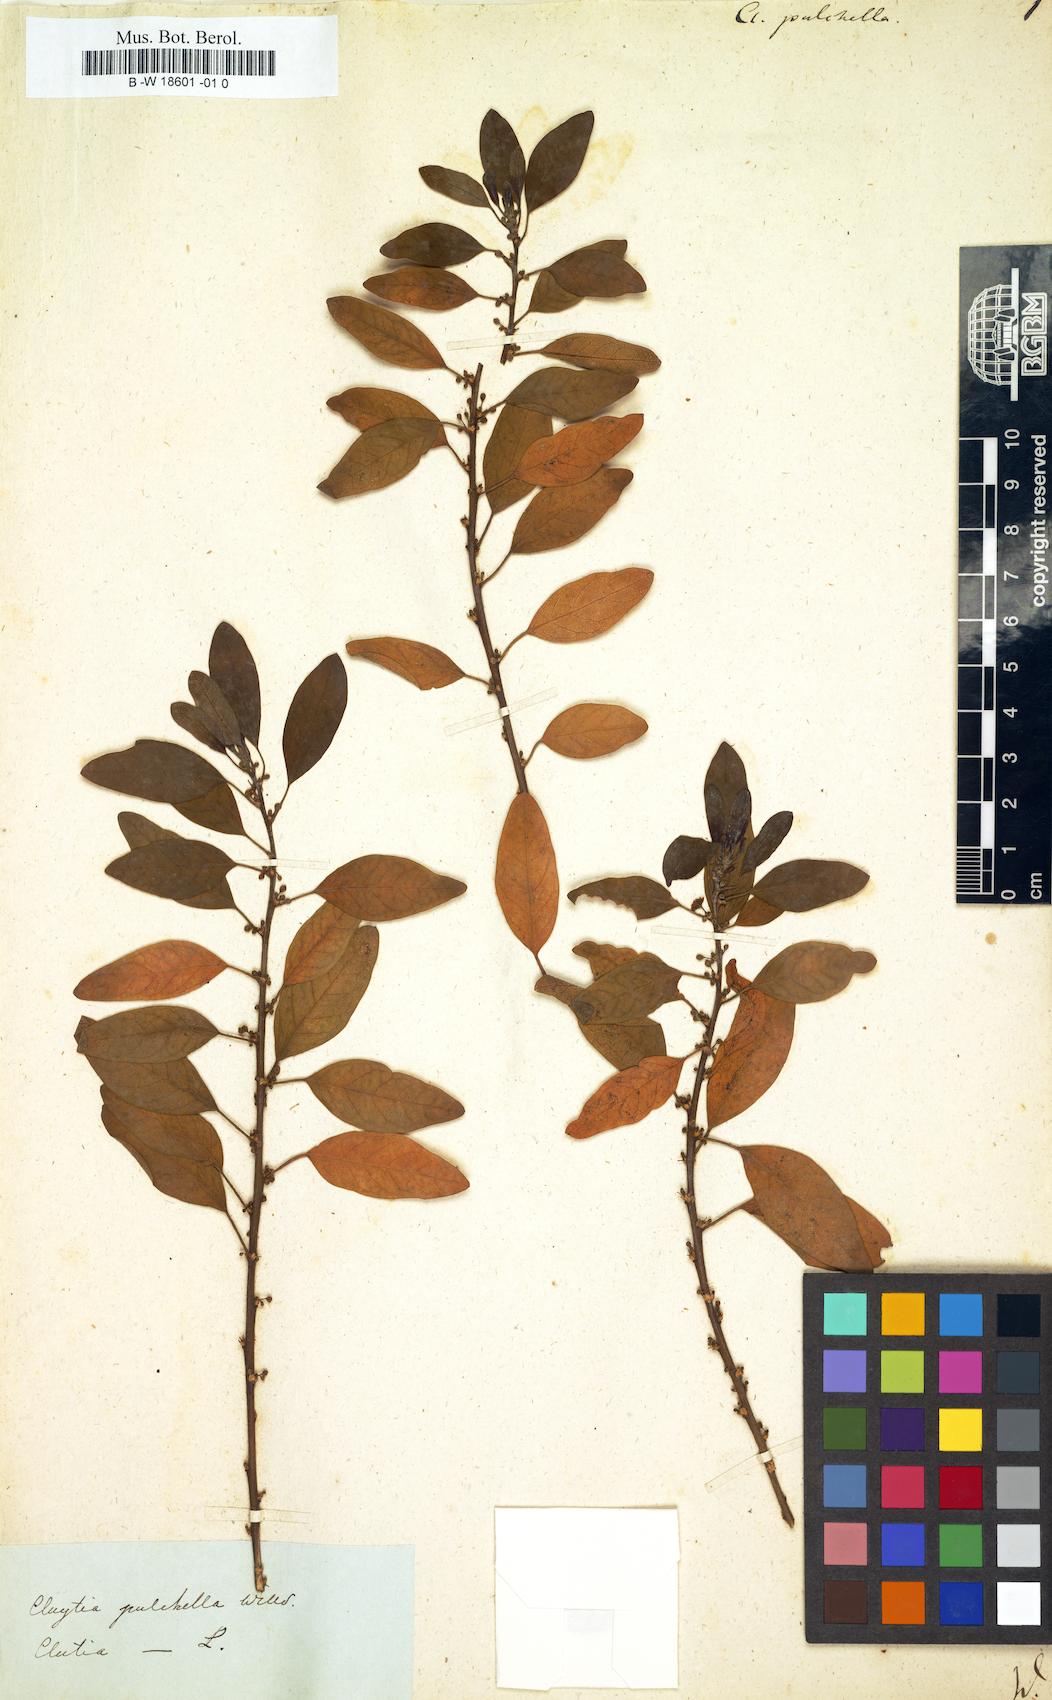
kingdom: Plantae
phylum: Tracheophyta
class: Magnoliopsida
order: Malpighiales
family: Peraceae
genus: Clutia
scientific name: Clutia
